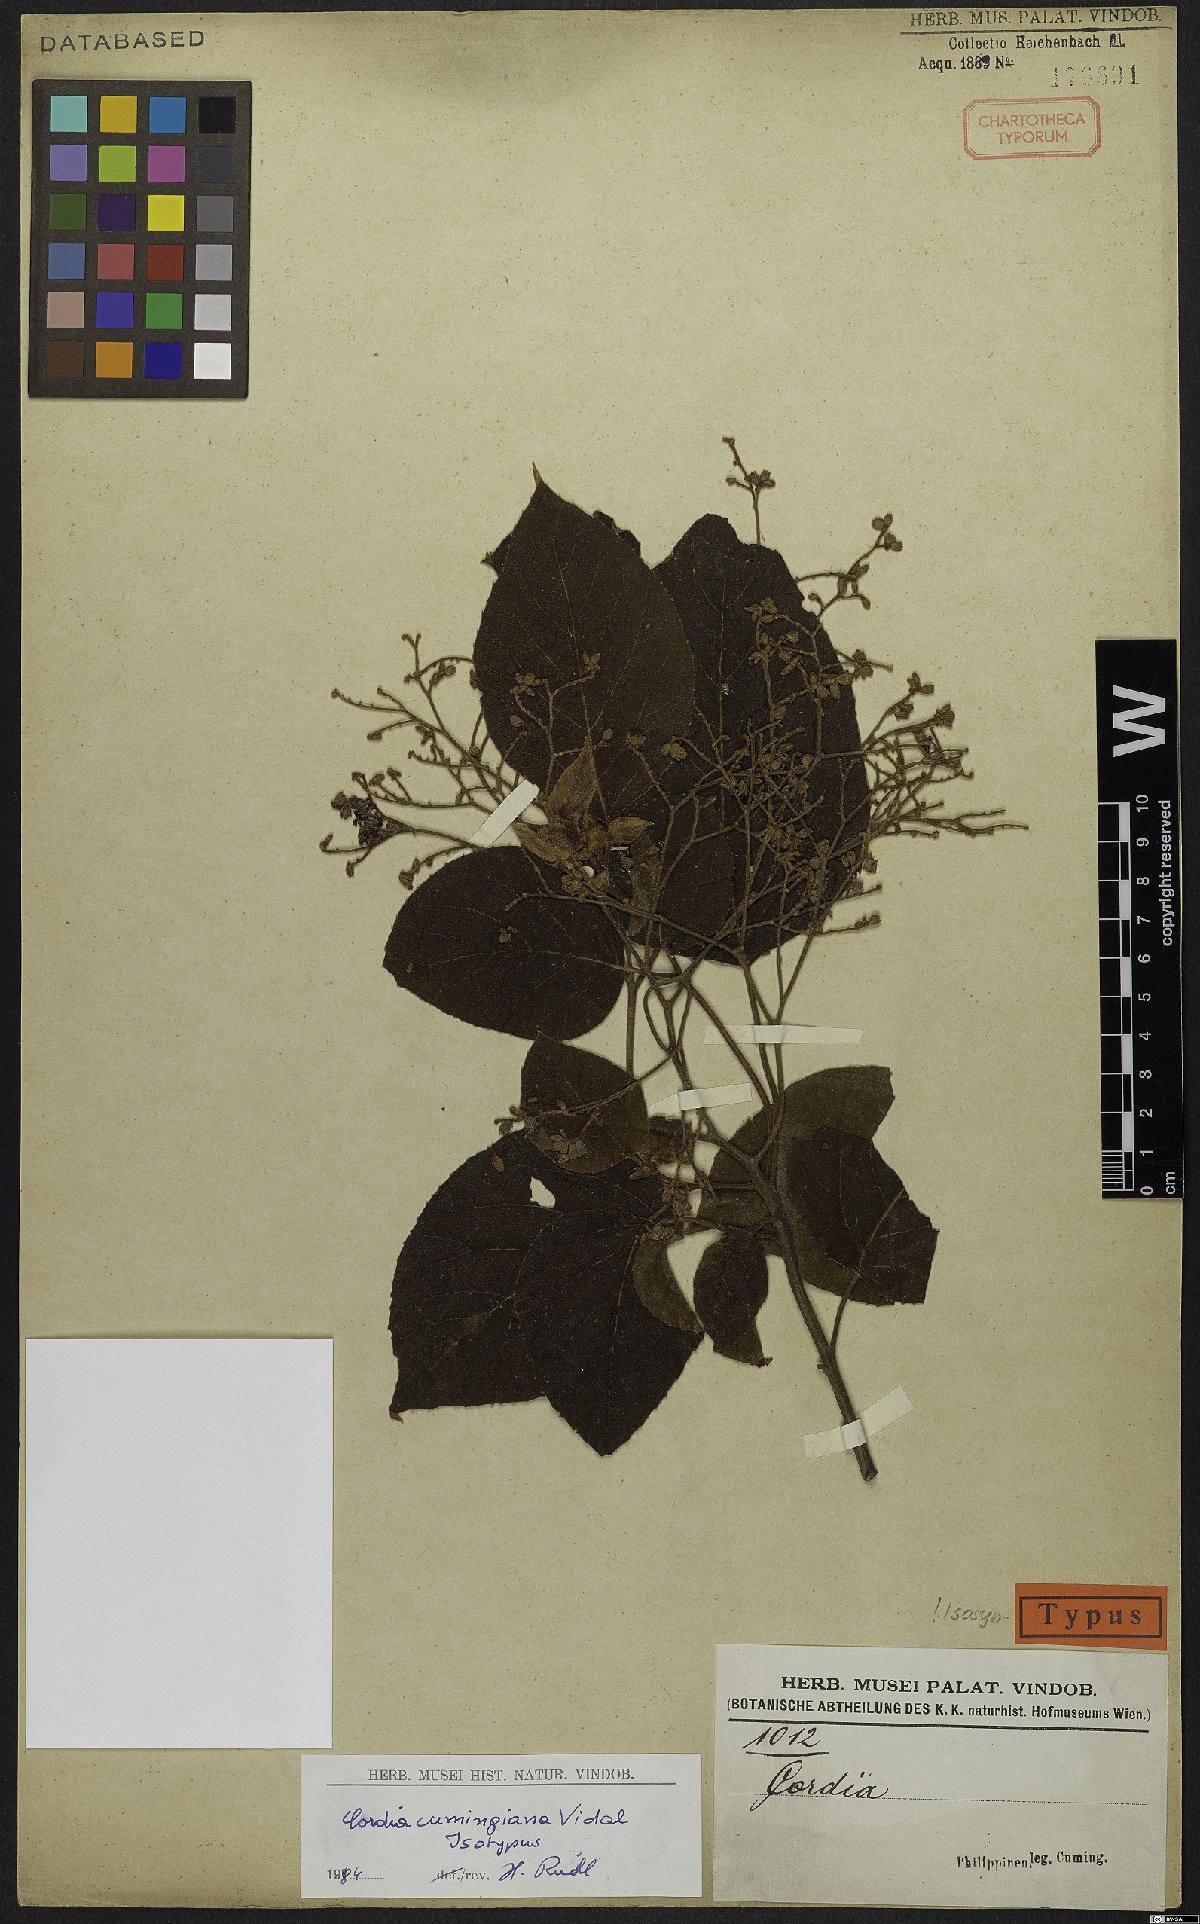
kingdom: Plantae
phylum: Tracheophyta
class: Magnoliopsida
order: Boraginales
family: Cordiaceae
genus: Cordia
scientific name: Cordia aspera
